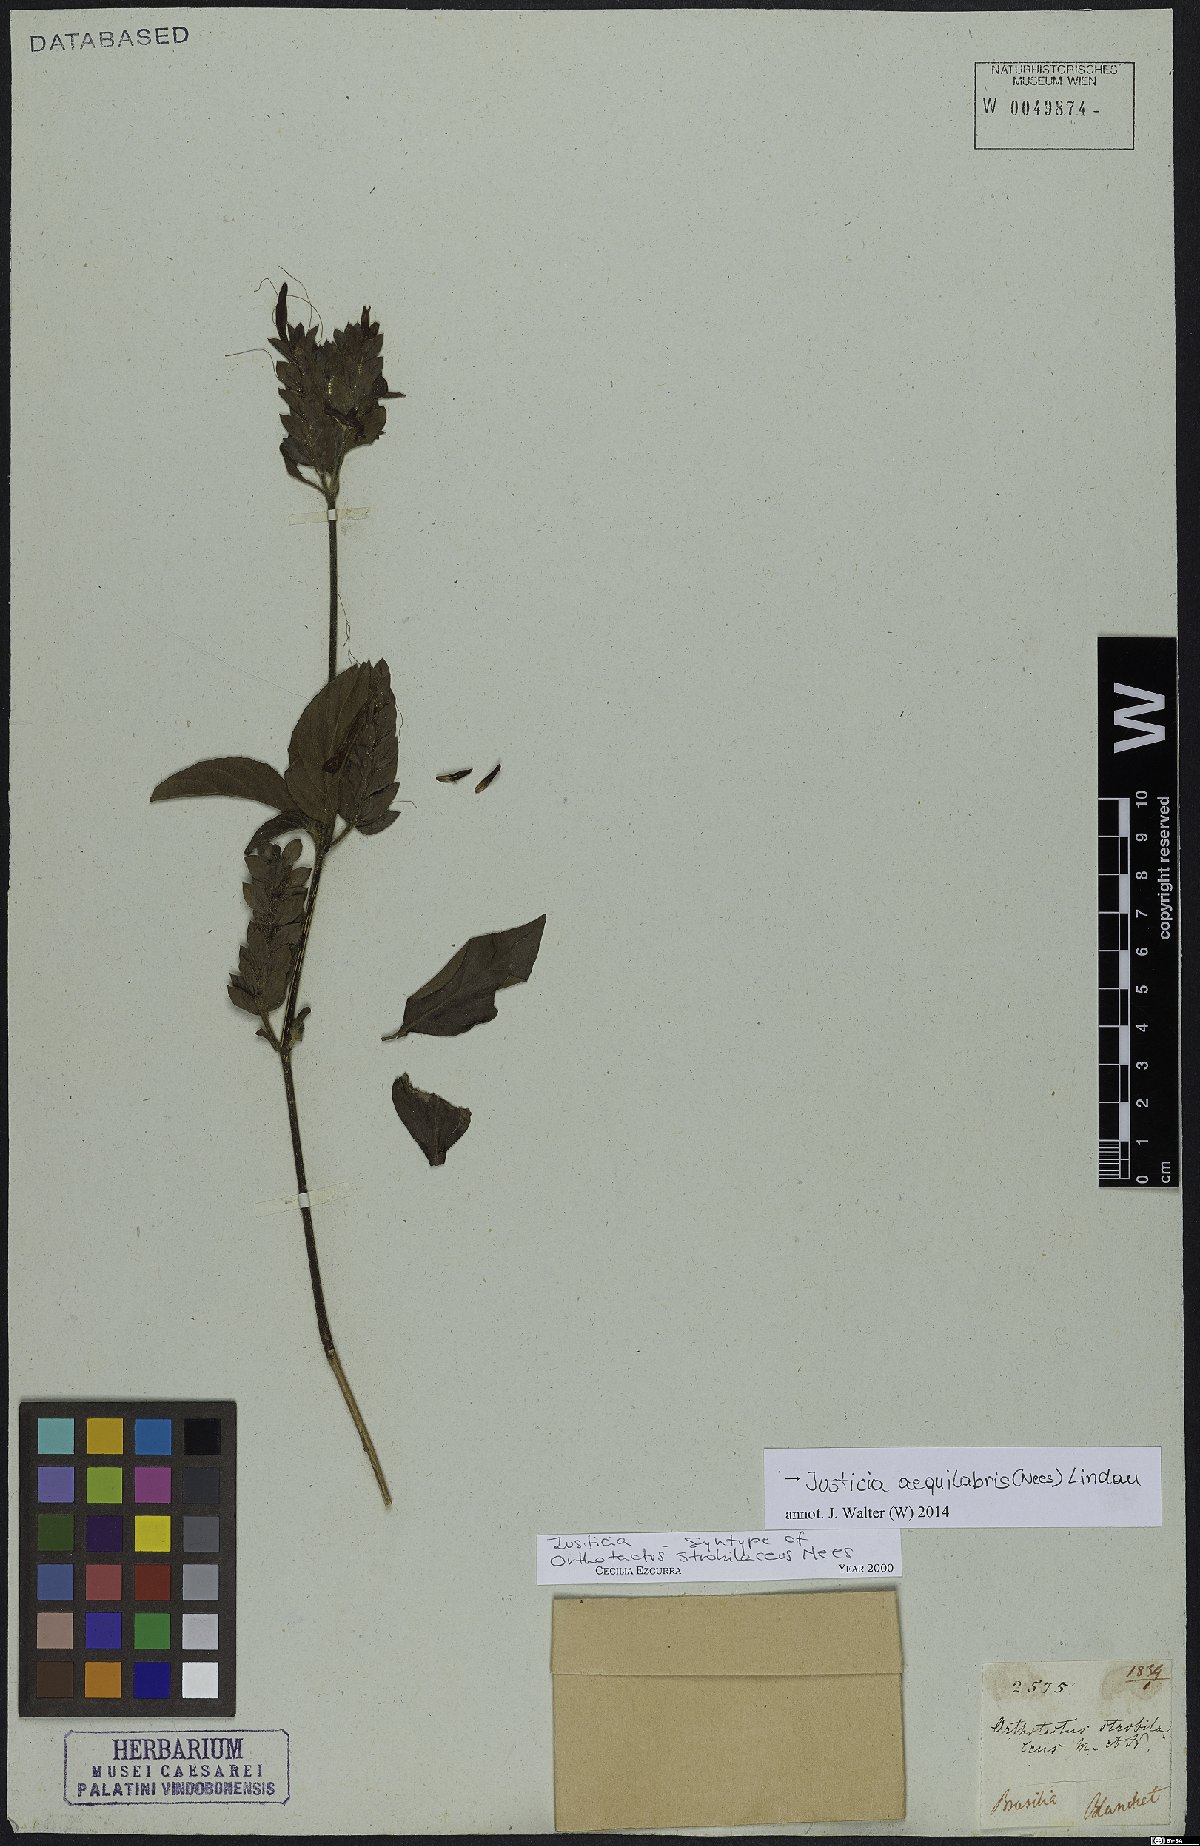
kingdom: Plantae
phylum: Tracheophyta
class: Magnoliopsida
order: Lamiales
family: Acanthaceae
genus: Justicia
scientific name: Justicia aequilabris
